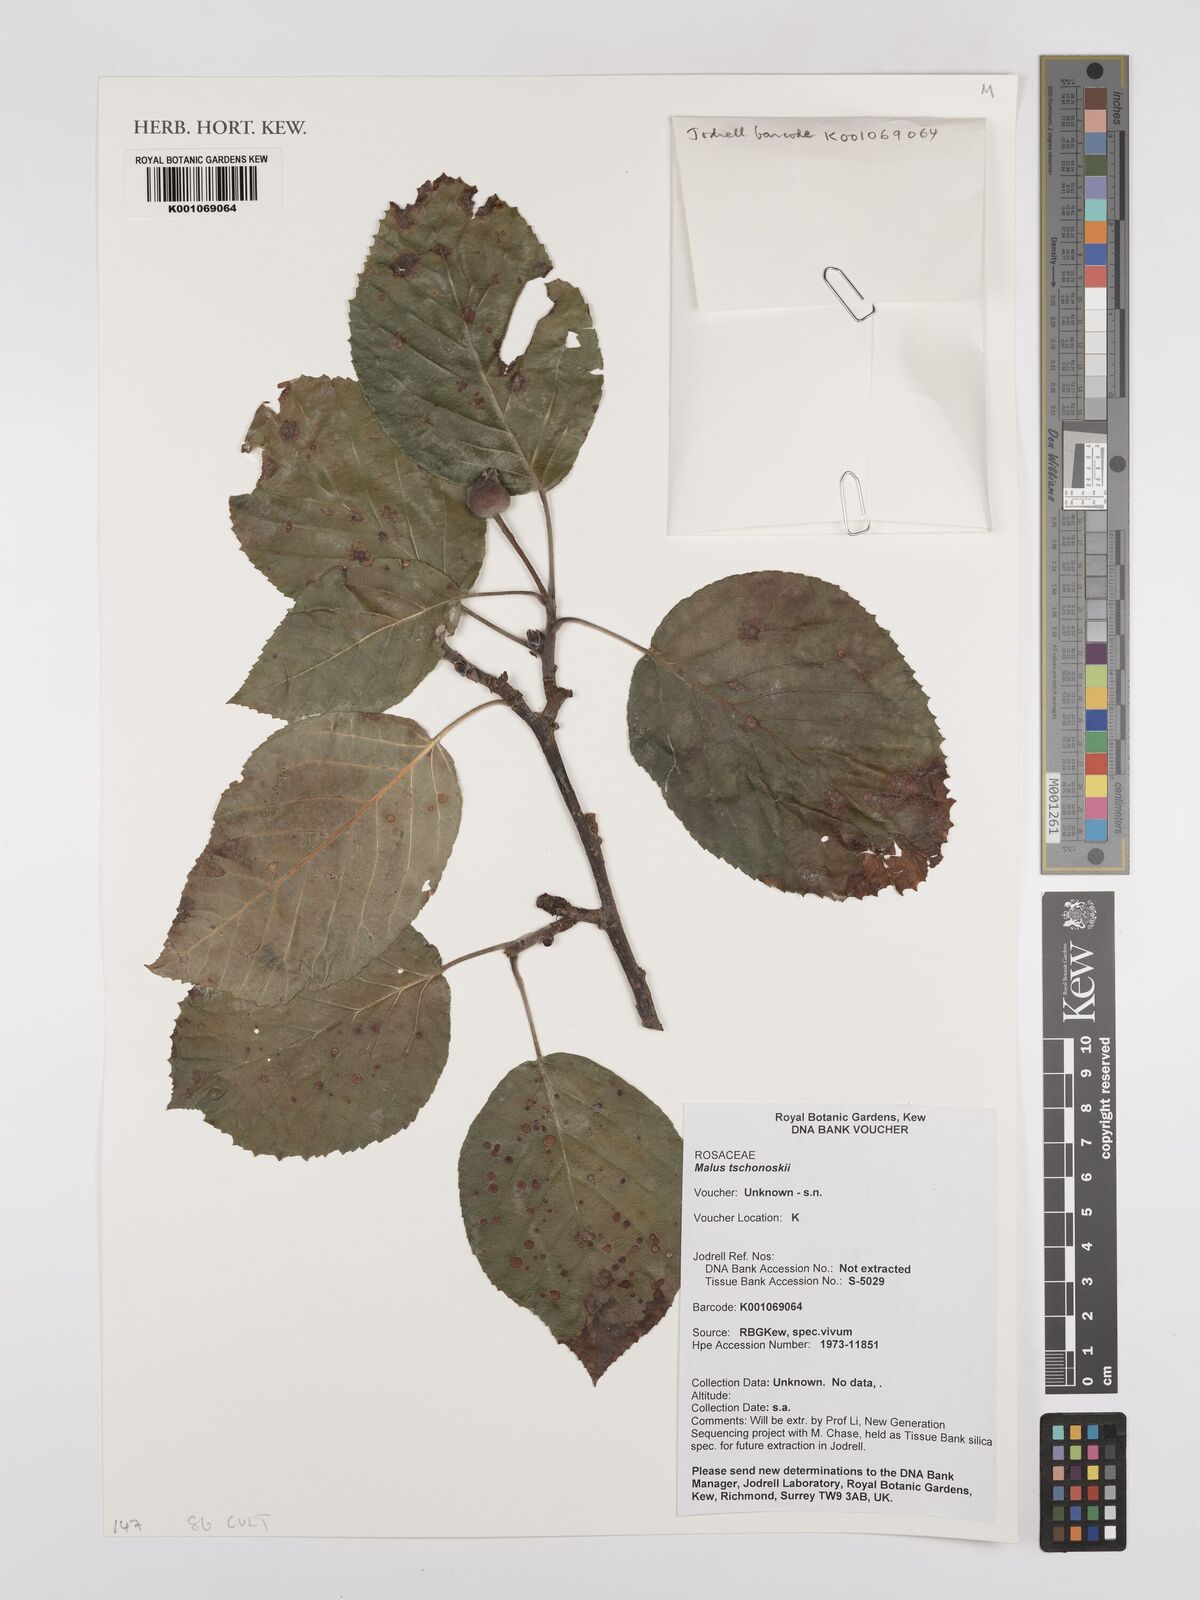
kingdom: Plantae
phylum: Tracheophyta
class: Magnoliopsida
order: Rosales
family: Rosaceae
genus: Malus
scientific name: Malus tschonoskii
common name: Pillar apple
